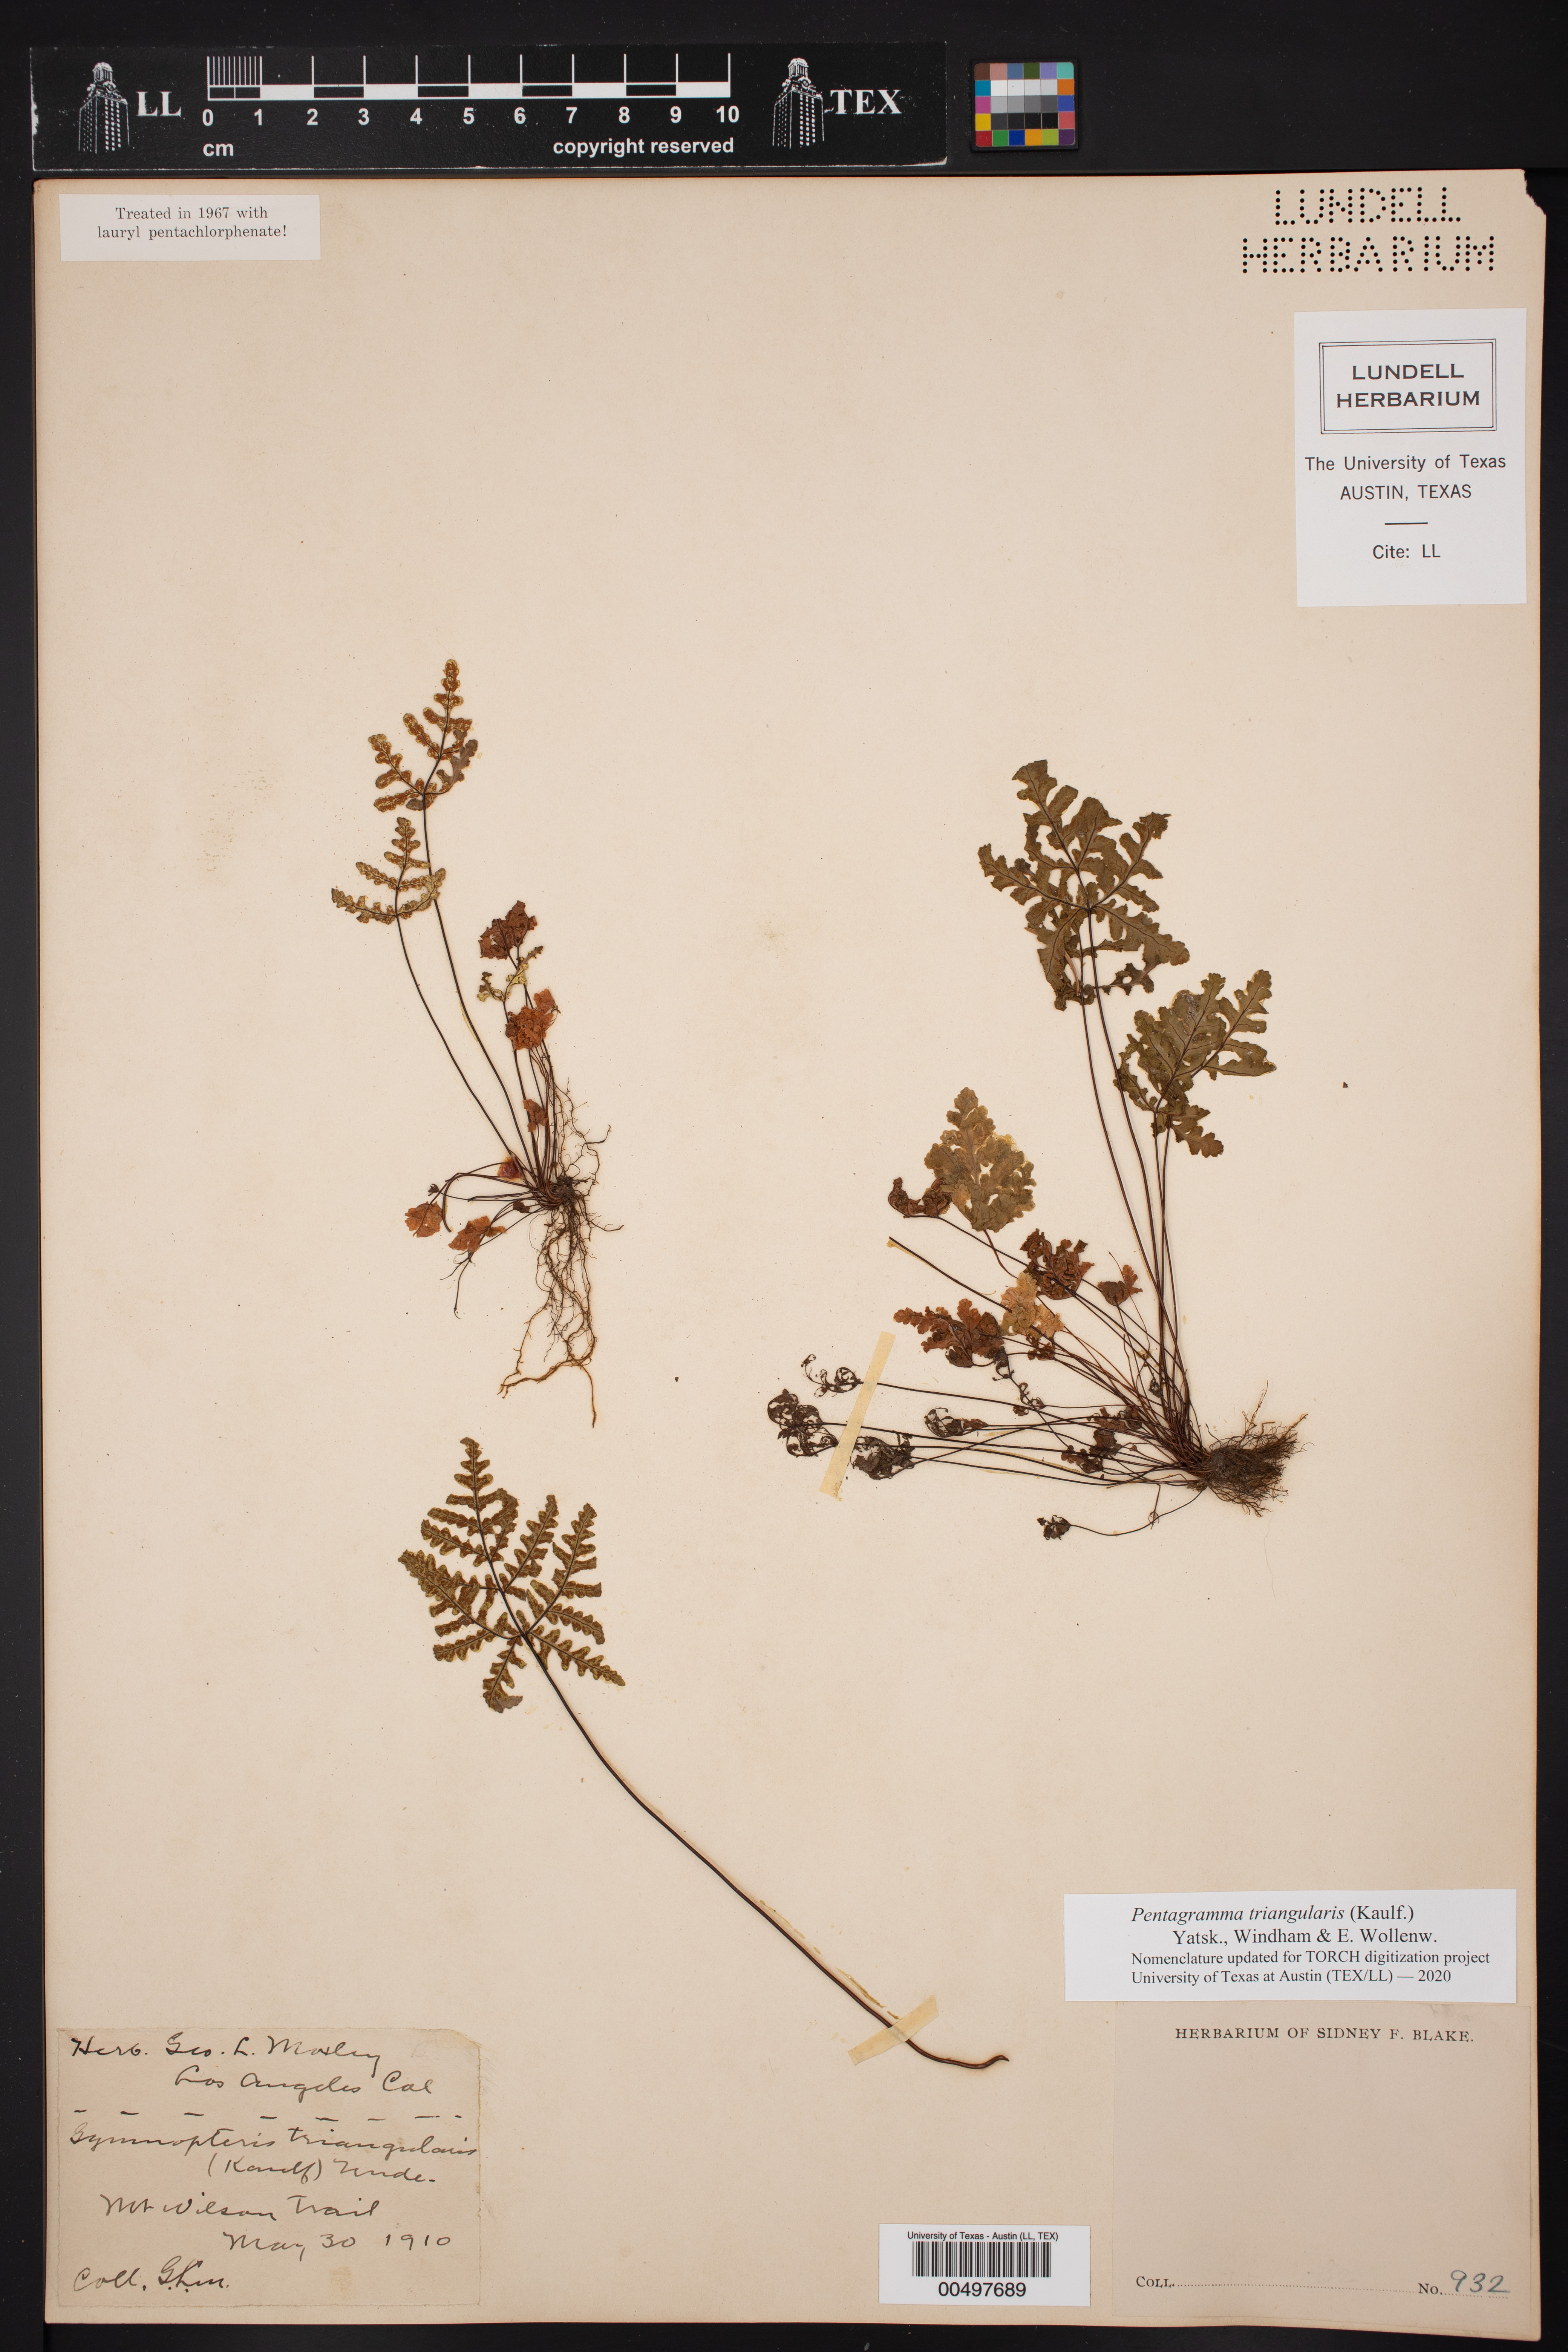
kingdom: Plantae
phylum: Tracheophyta
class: Polypodiopsida
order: Polypodiales
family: Pteridaceae
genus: Pentagramma
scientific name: Pentagramma triangularis
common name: Gold fern
